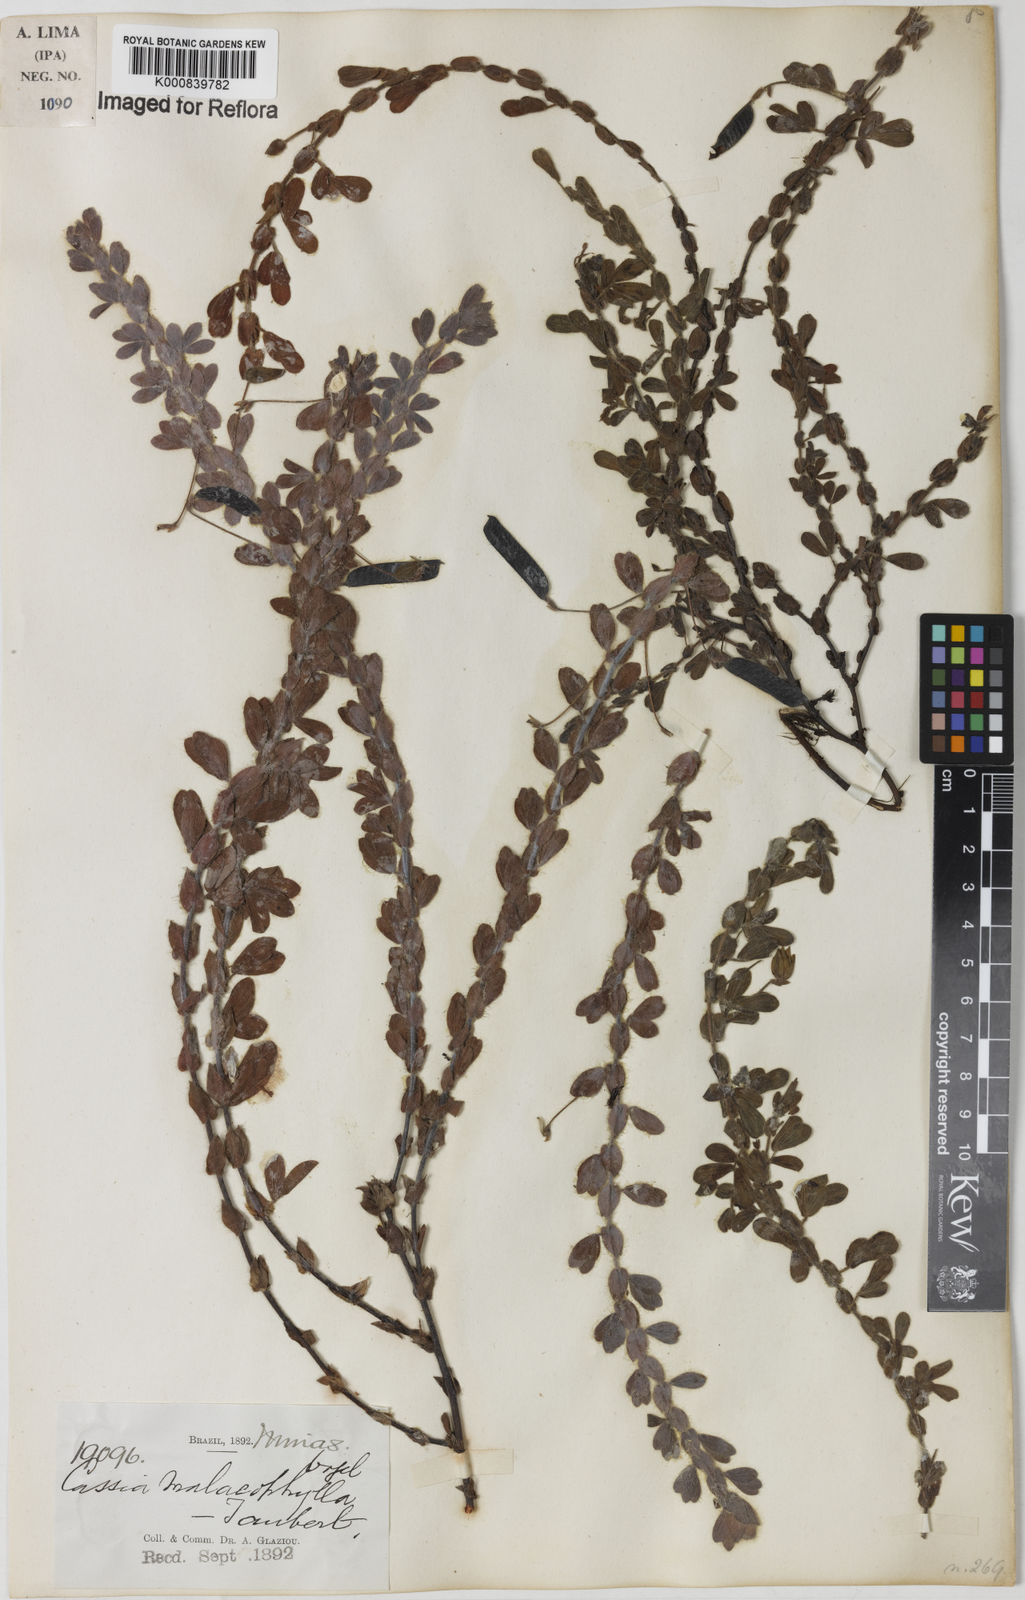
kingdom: Plantae
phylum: Tracheophyta
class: Magnoliopsida
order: Fabales
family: Fabaceae
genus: Chamaecrista
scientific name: Chamaecrista desvauxii
